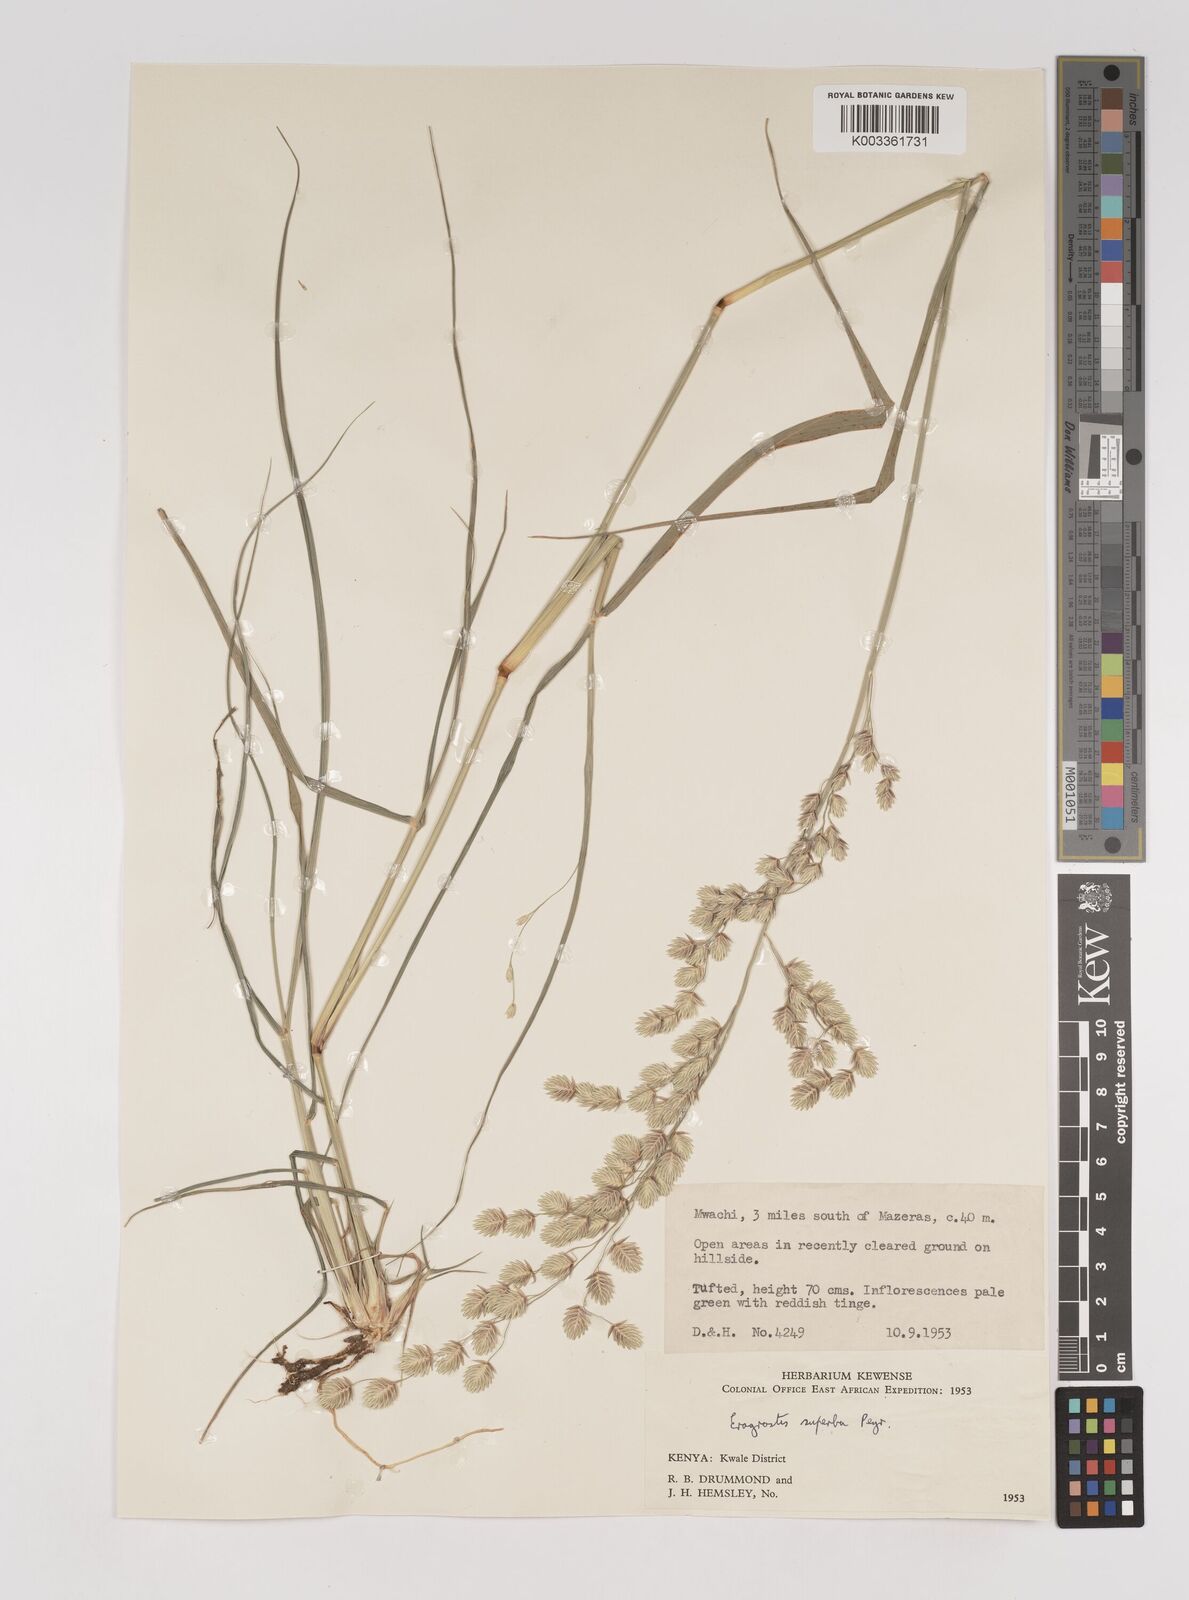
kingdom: Plantae
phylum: Tracheophyta
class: Liliopsida
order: Poales
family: Poaceae
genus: Eragrostis
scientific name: Eragrostis superba
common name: Wilman lovegrass
